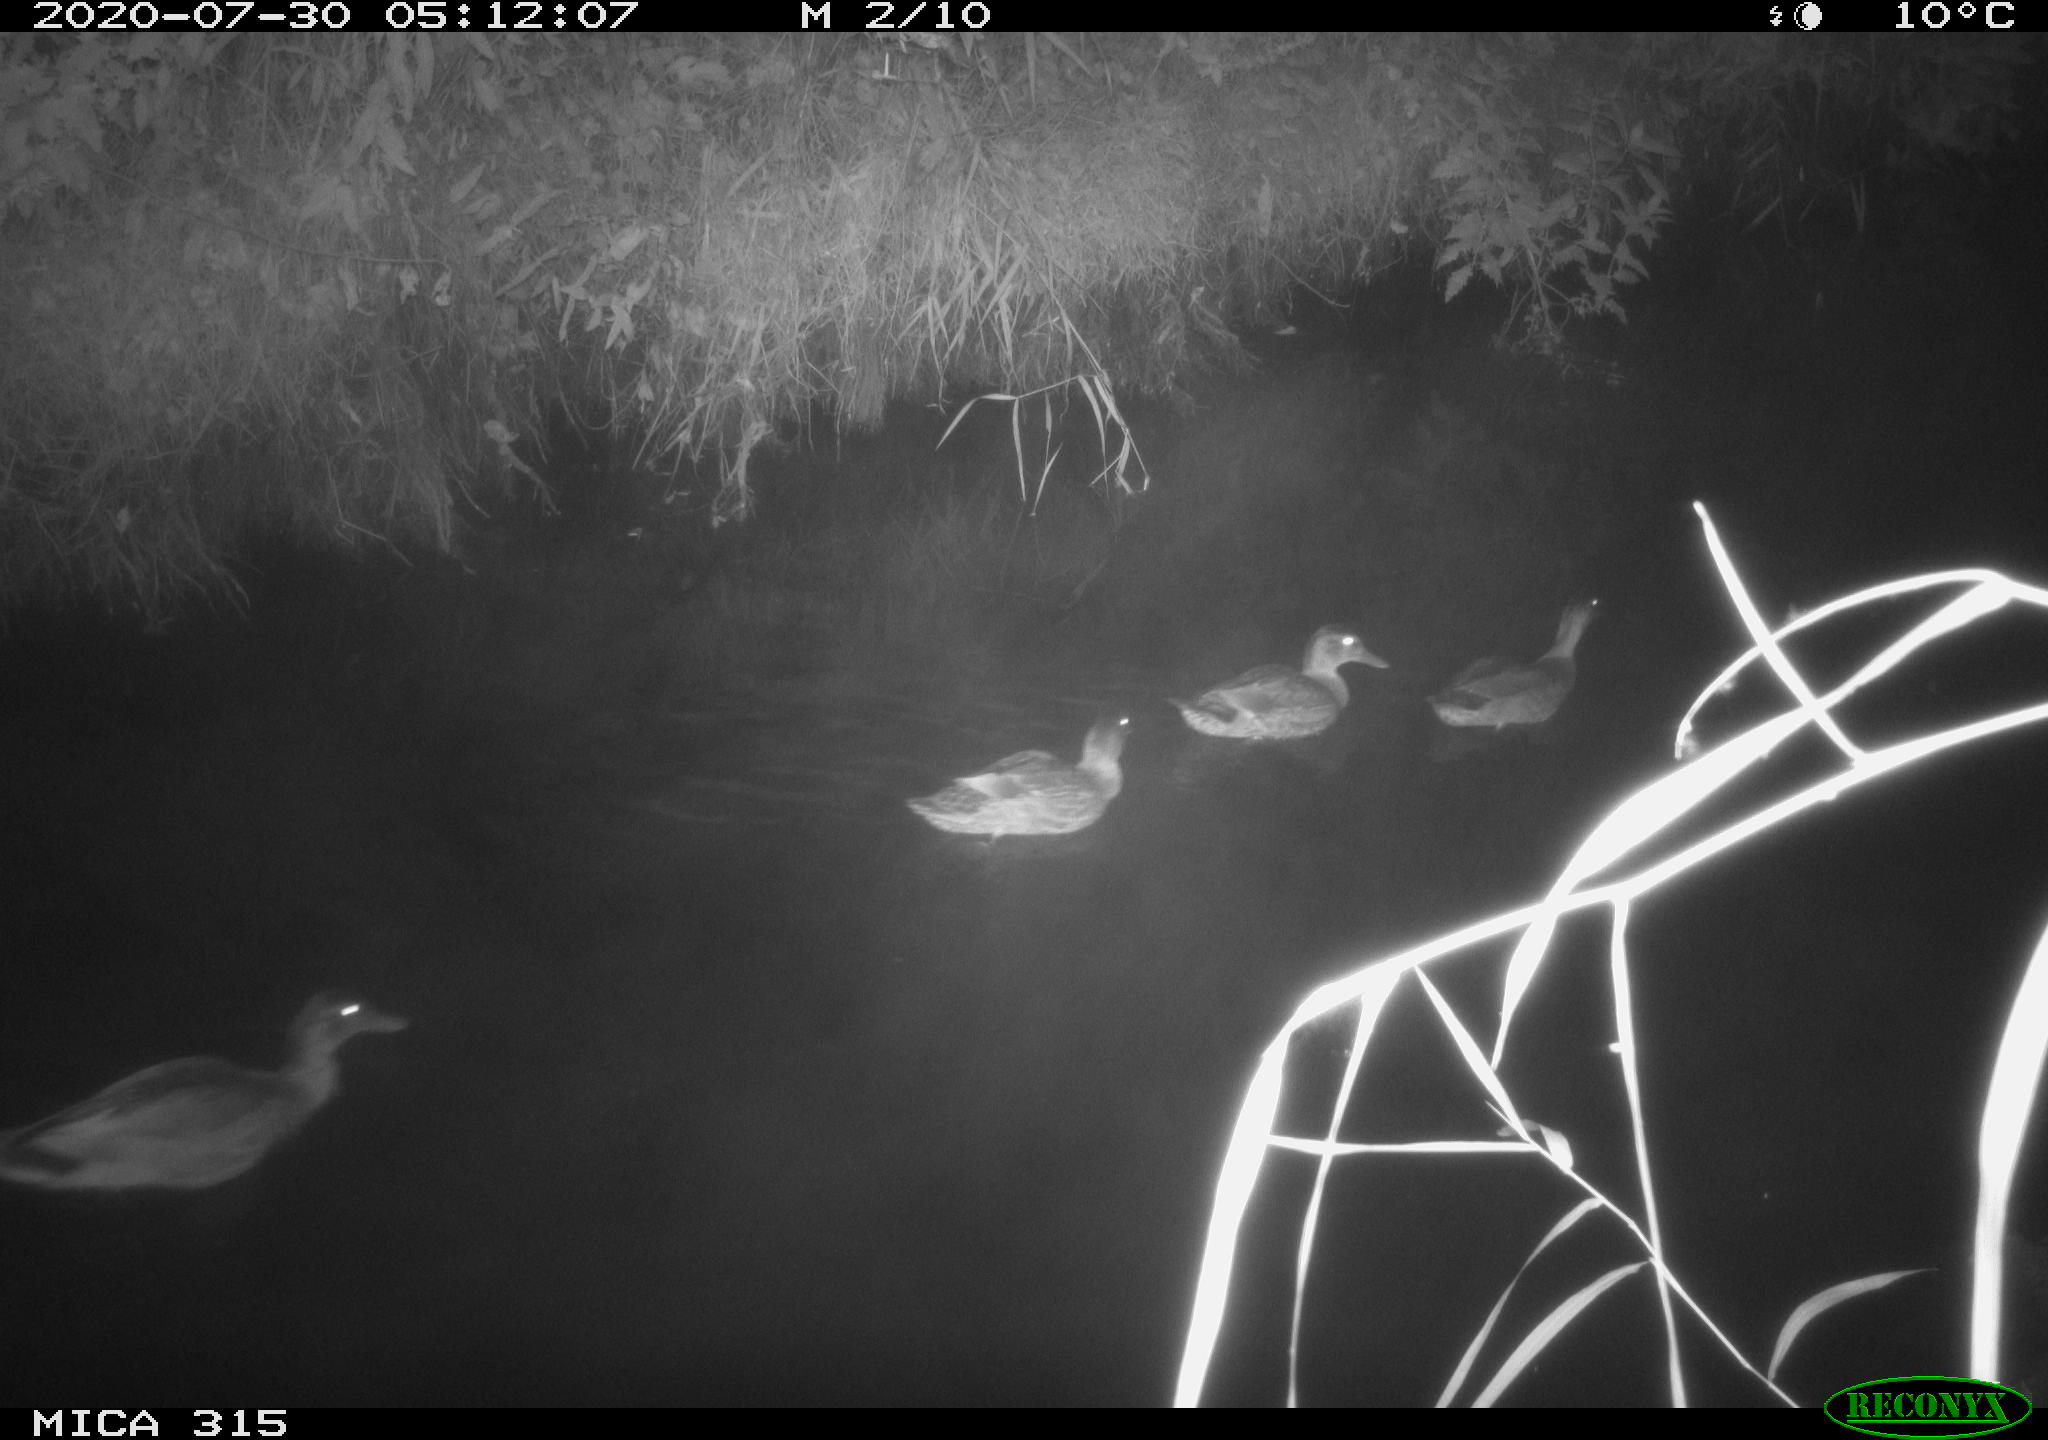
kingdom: Animalia
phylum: Chordata
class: Aves
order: Anseriformes
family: Anatidae
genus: Anas
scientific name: Anas platyrhynchos
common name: Mallard
